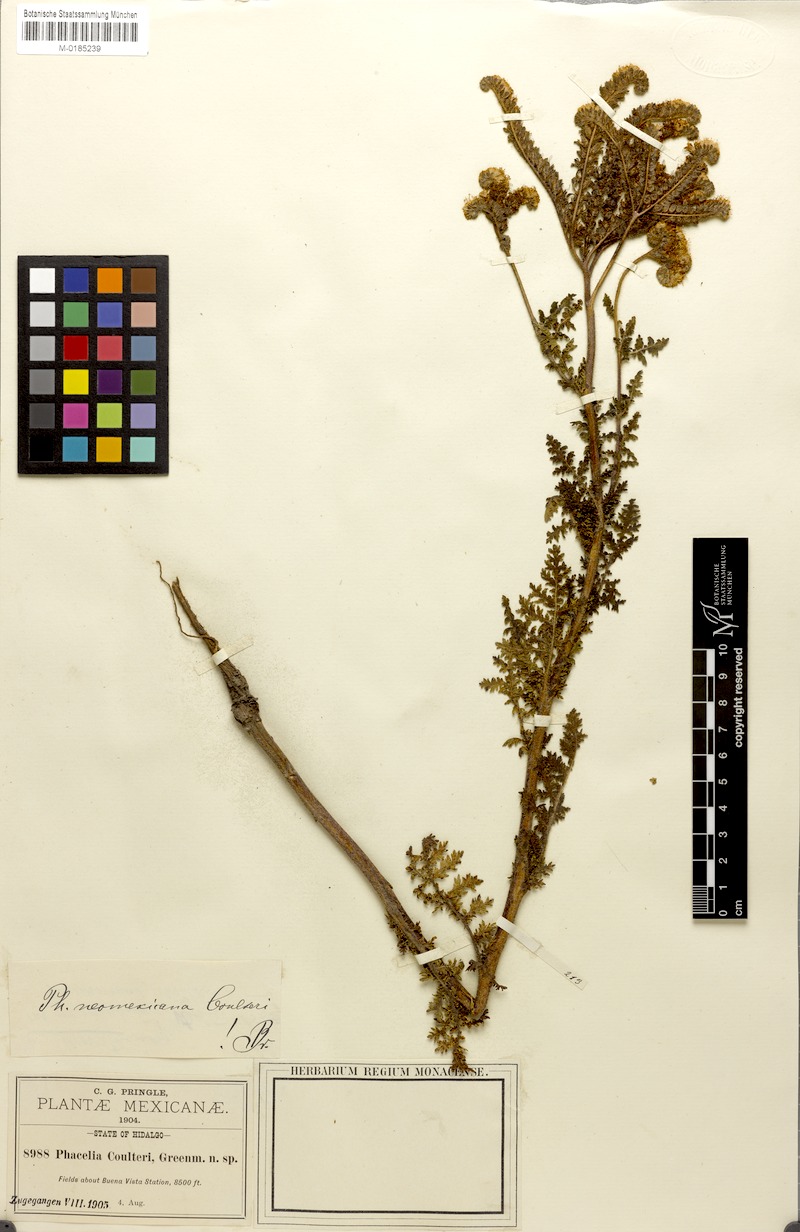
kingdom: Plantae
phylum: Tracheophyta
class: Magnoliopsida
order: Boraginales
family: Hydrophyllaceae
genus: Phacelia
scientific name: Phacelia coulteri
